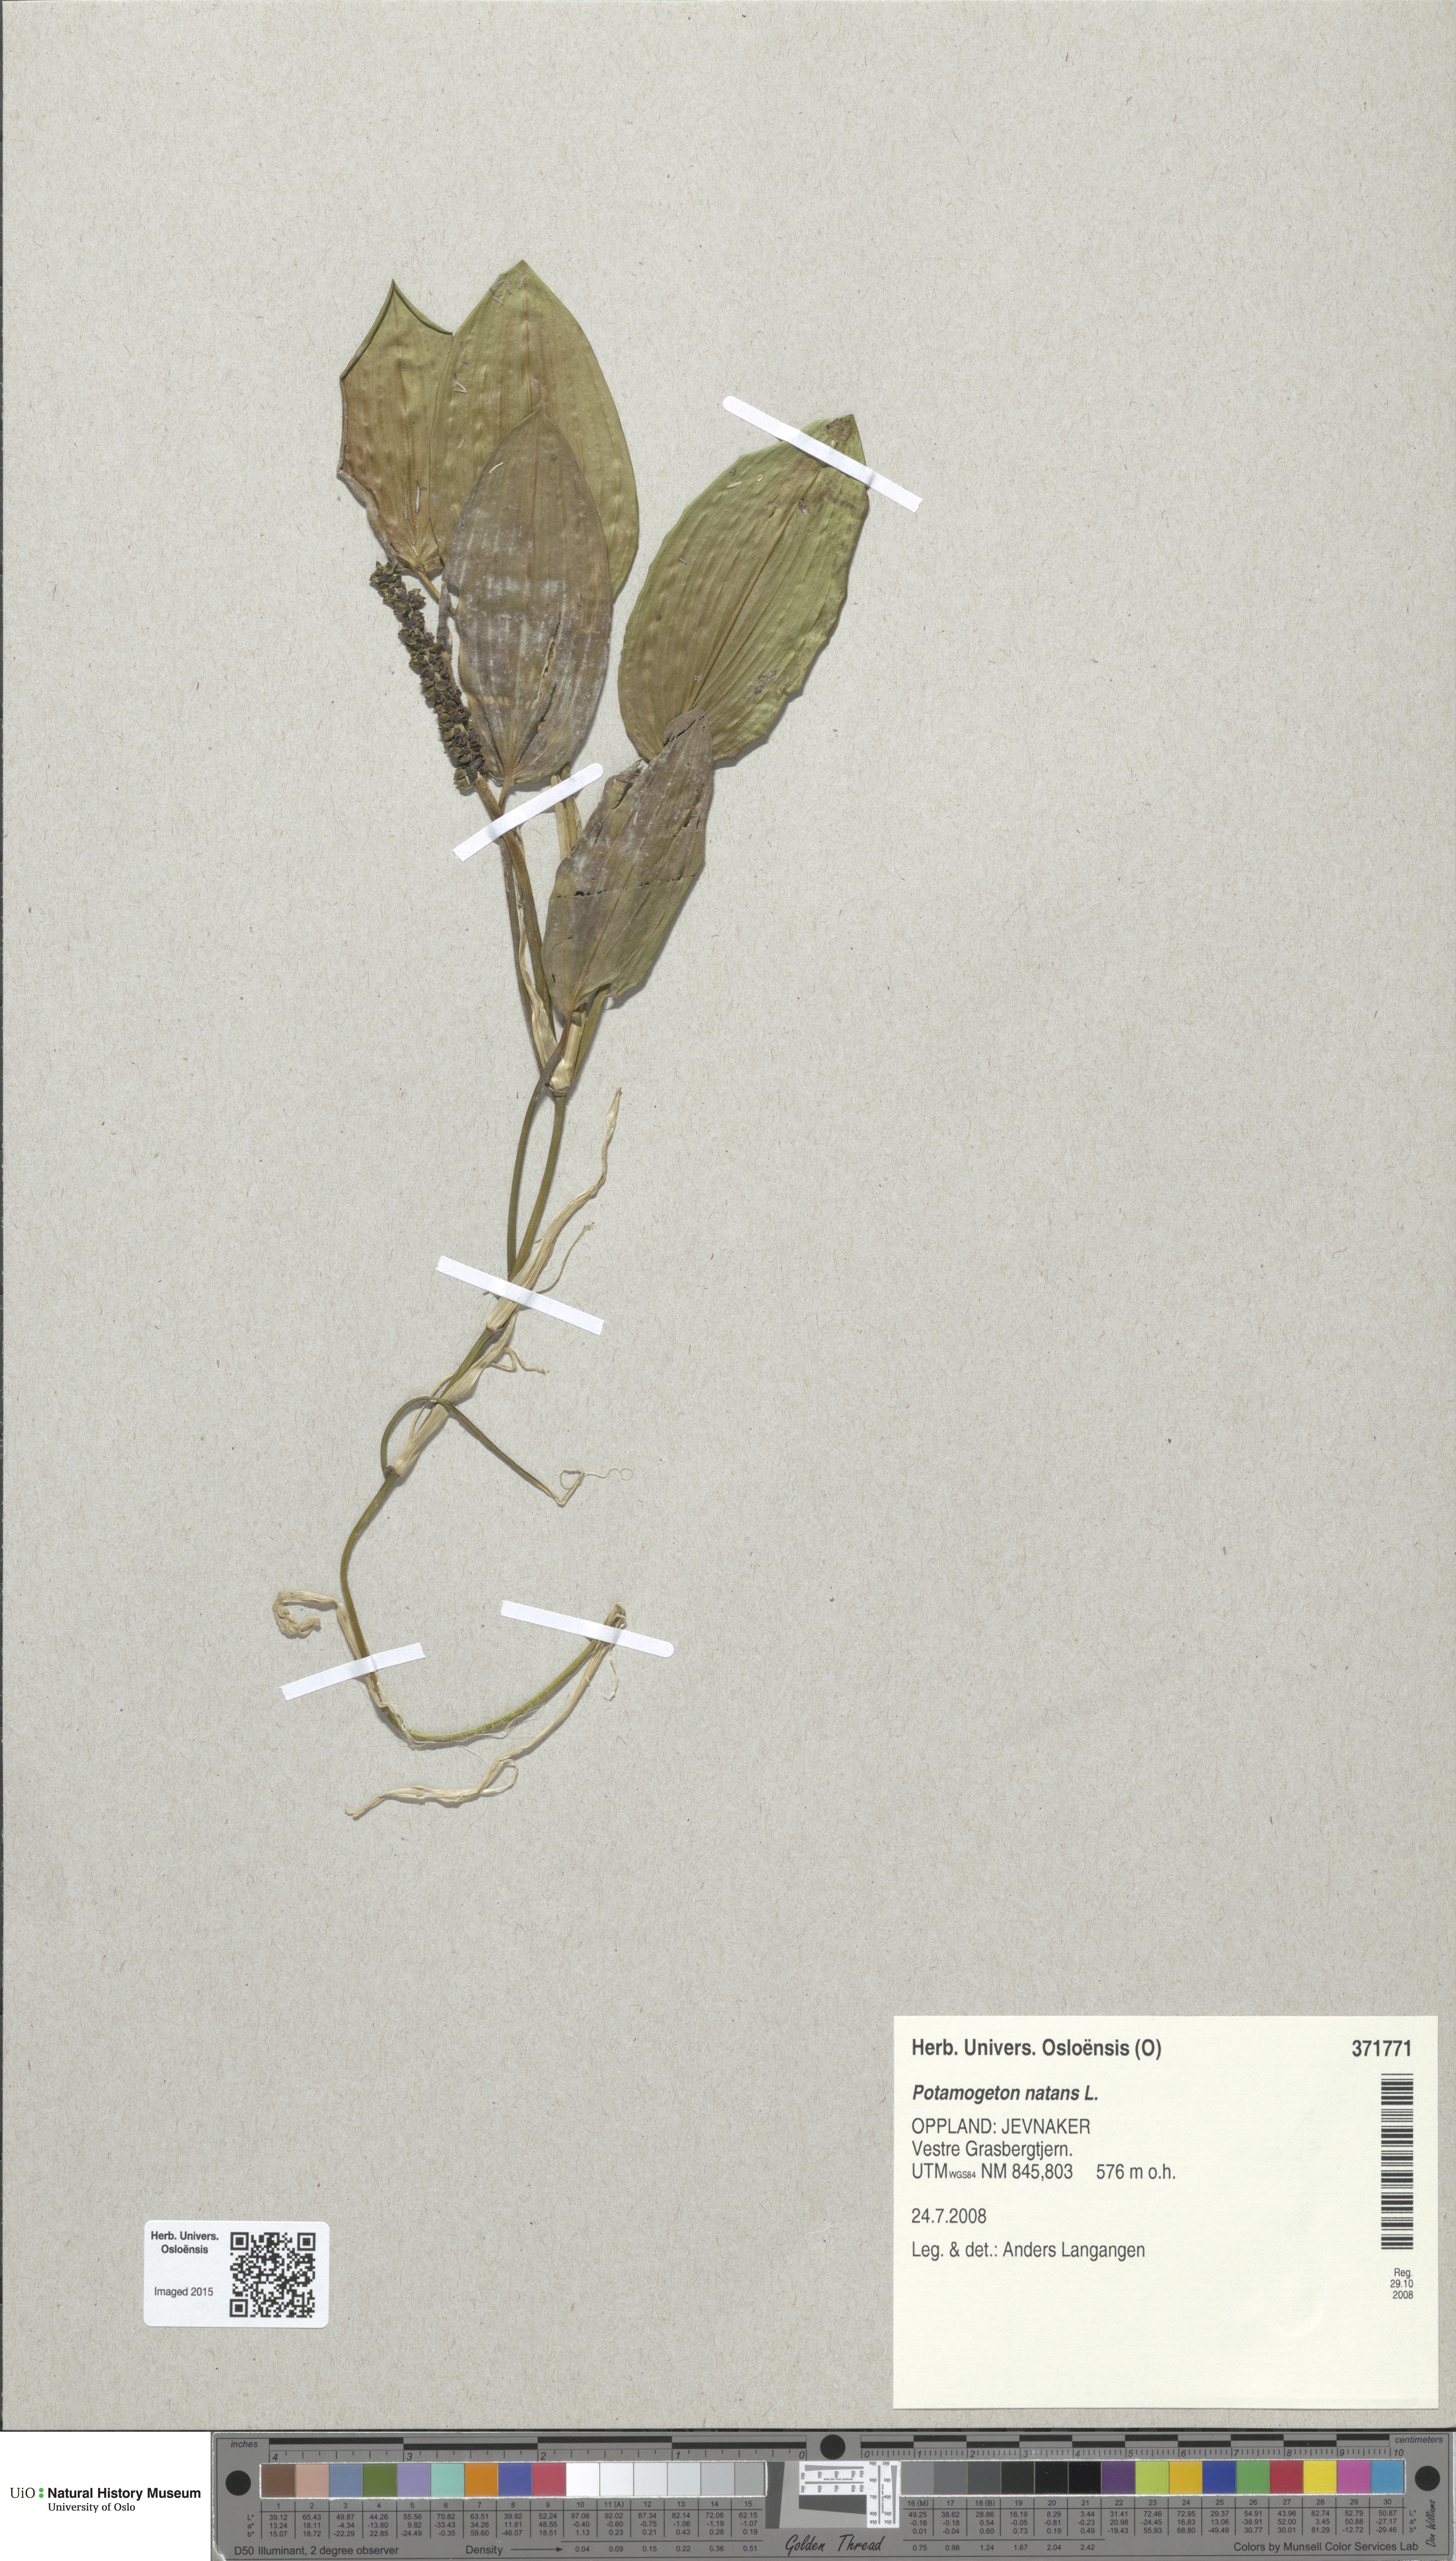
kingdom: Plantae
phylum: Tracheophyta
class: Liliopsida
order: Alismatales
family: Potamogetonaceae
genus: Potamogeton
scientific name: Potamogeton natans
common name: Broad-leaved pondweed
